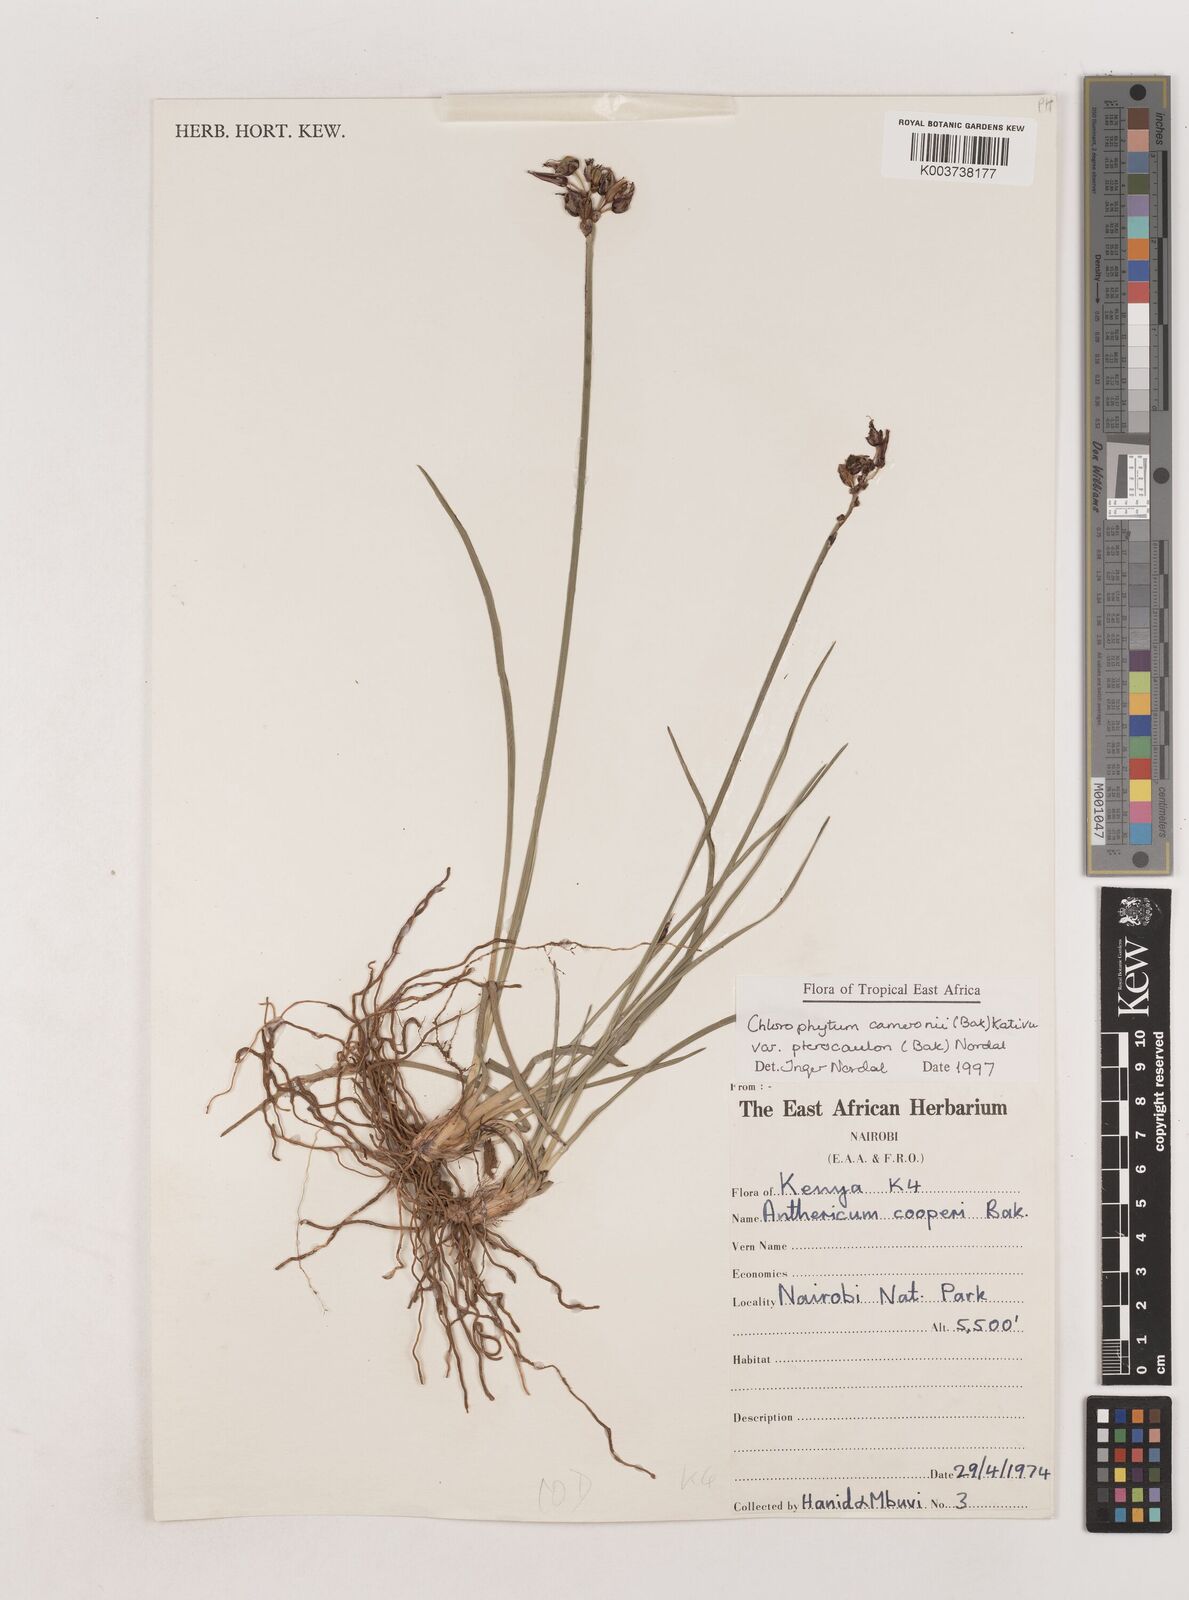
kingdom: Plantae
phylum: Tracheophyta
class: Liliopsida
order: Asparagales
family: Asparagaceae
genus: Chlorophytum
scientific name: Chlorophytum cameronii
